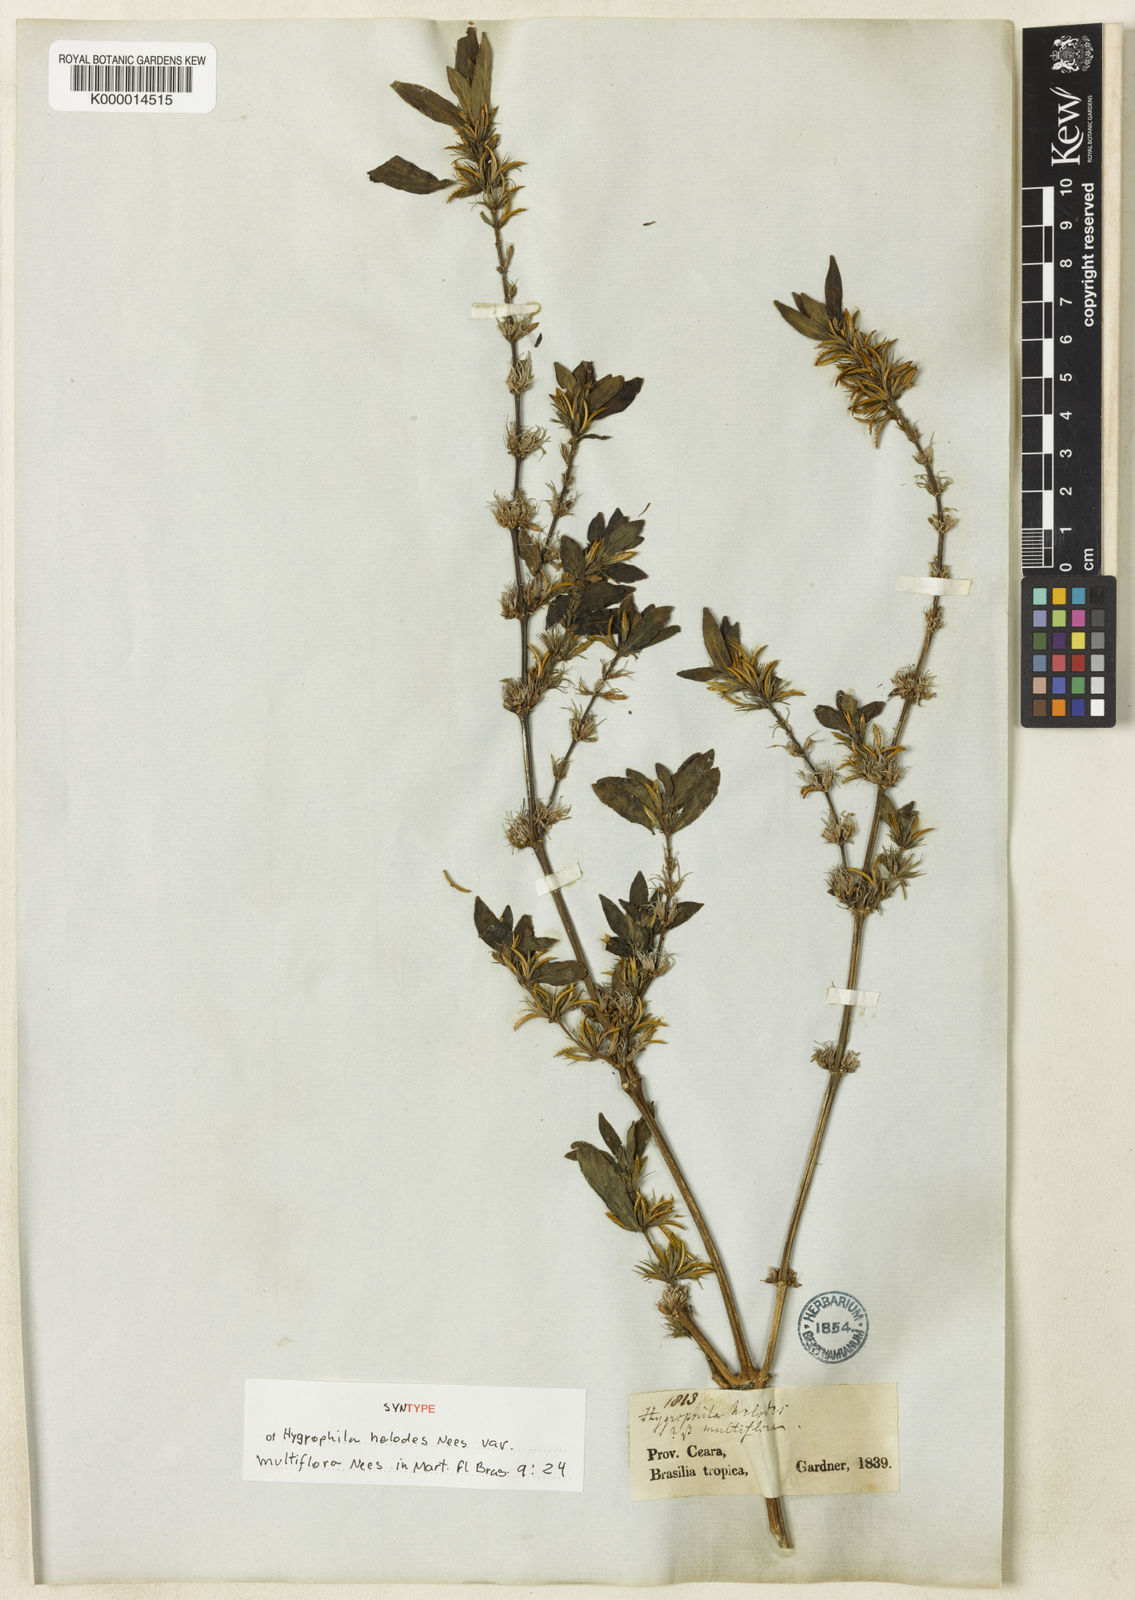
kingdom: Plantae
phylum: Tracheophyta
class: Magnoliopsida
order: Lamiales
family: Acanthaceae
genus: Hygrophila
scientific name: Hygrophila costata
